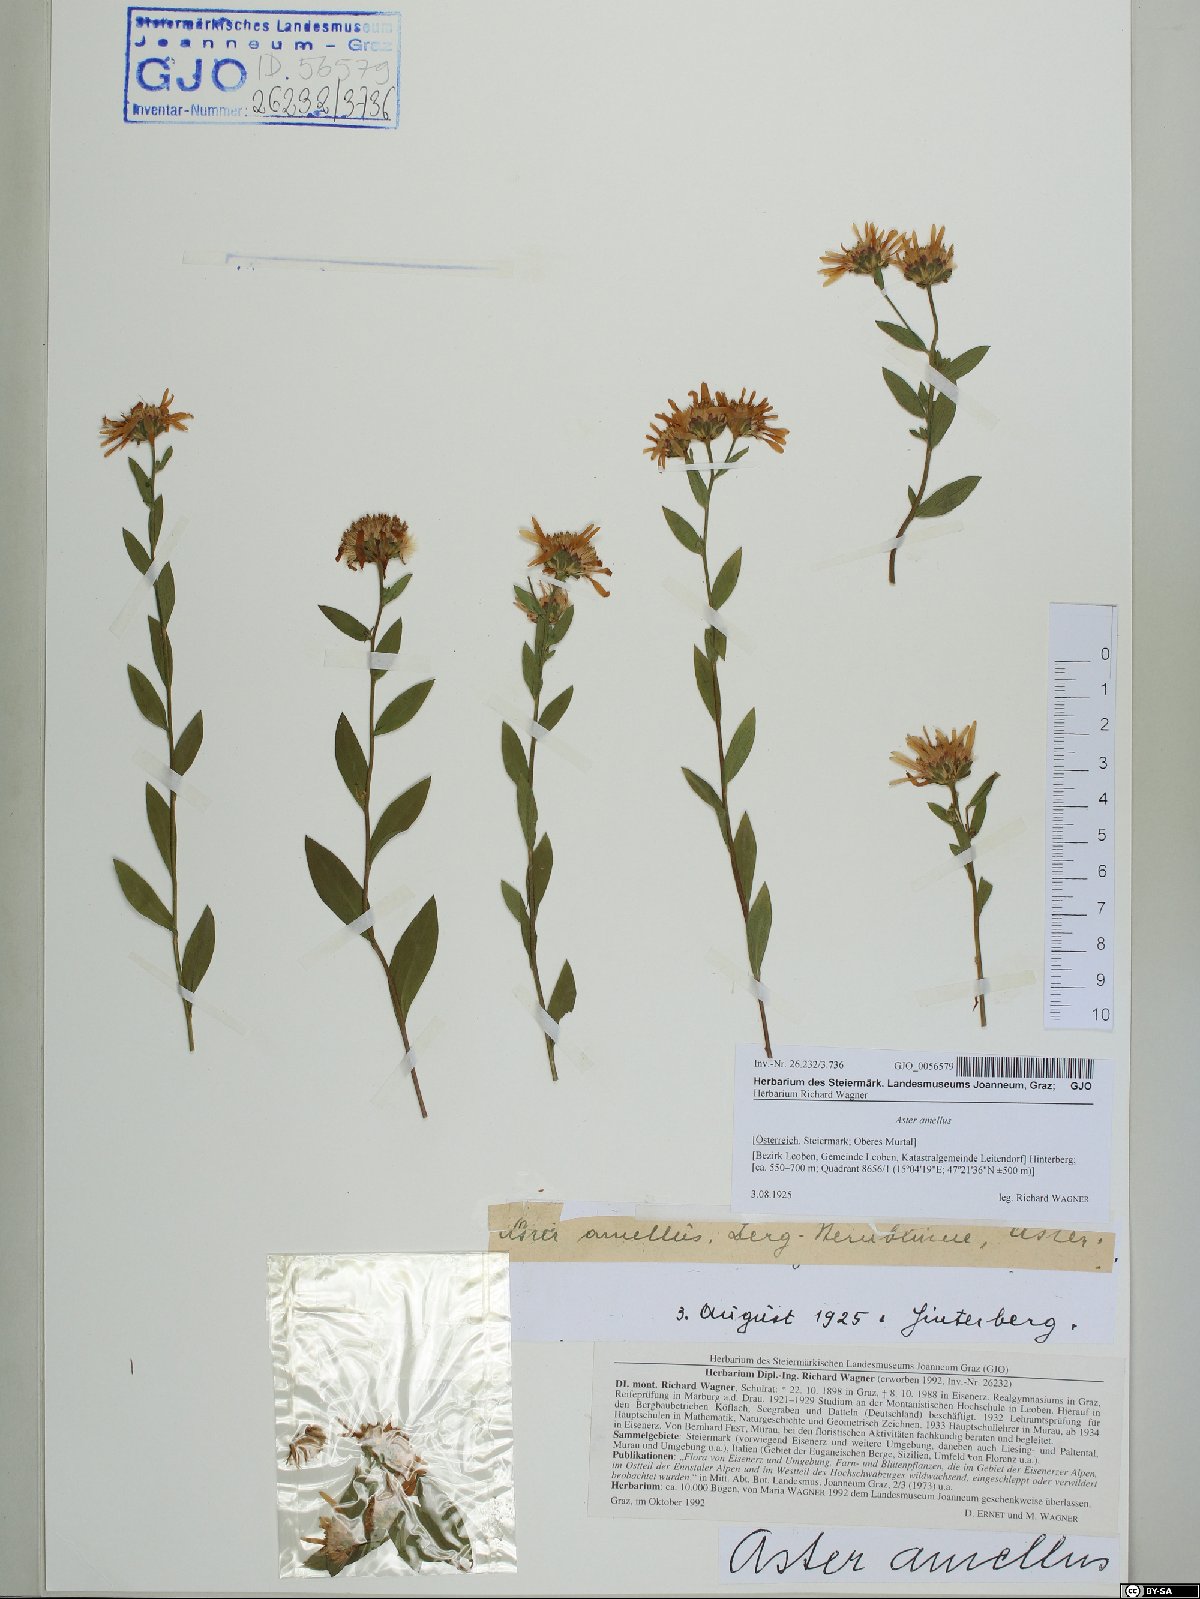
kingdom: Plantae
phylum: Tracheophyta
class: Magnoliopsida
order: Asterales
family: Asteraceae
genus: Aster
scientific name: Aster amellus
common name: European michaelmas daisy
